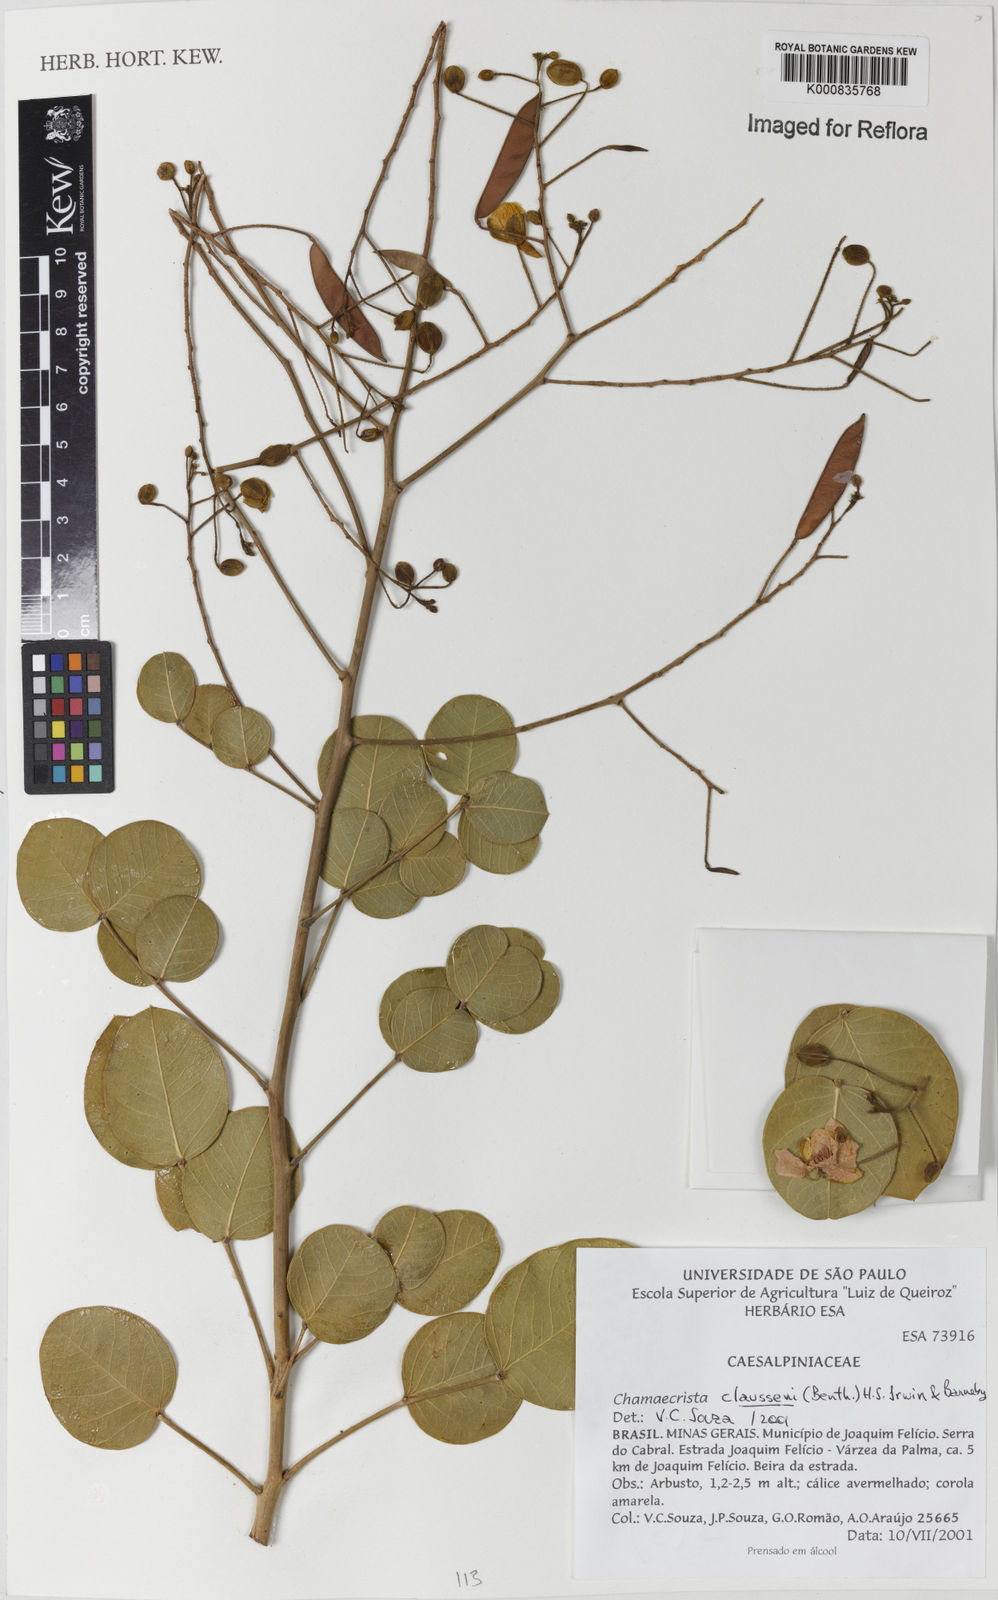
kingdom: Plantae
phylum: Tracheophyta
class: Magnoliopsida
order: Fabales
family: Fabaceae
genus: Chamaecrista
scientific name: Chamaecrista claussenii
